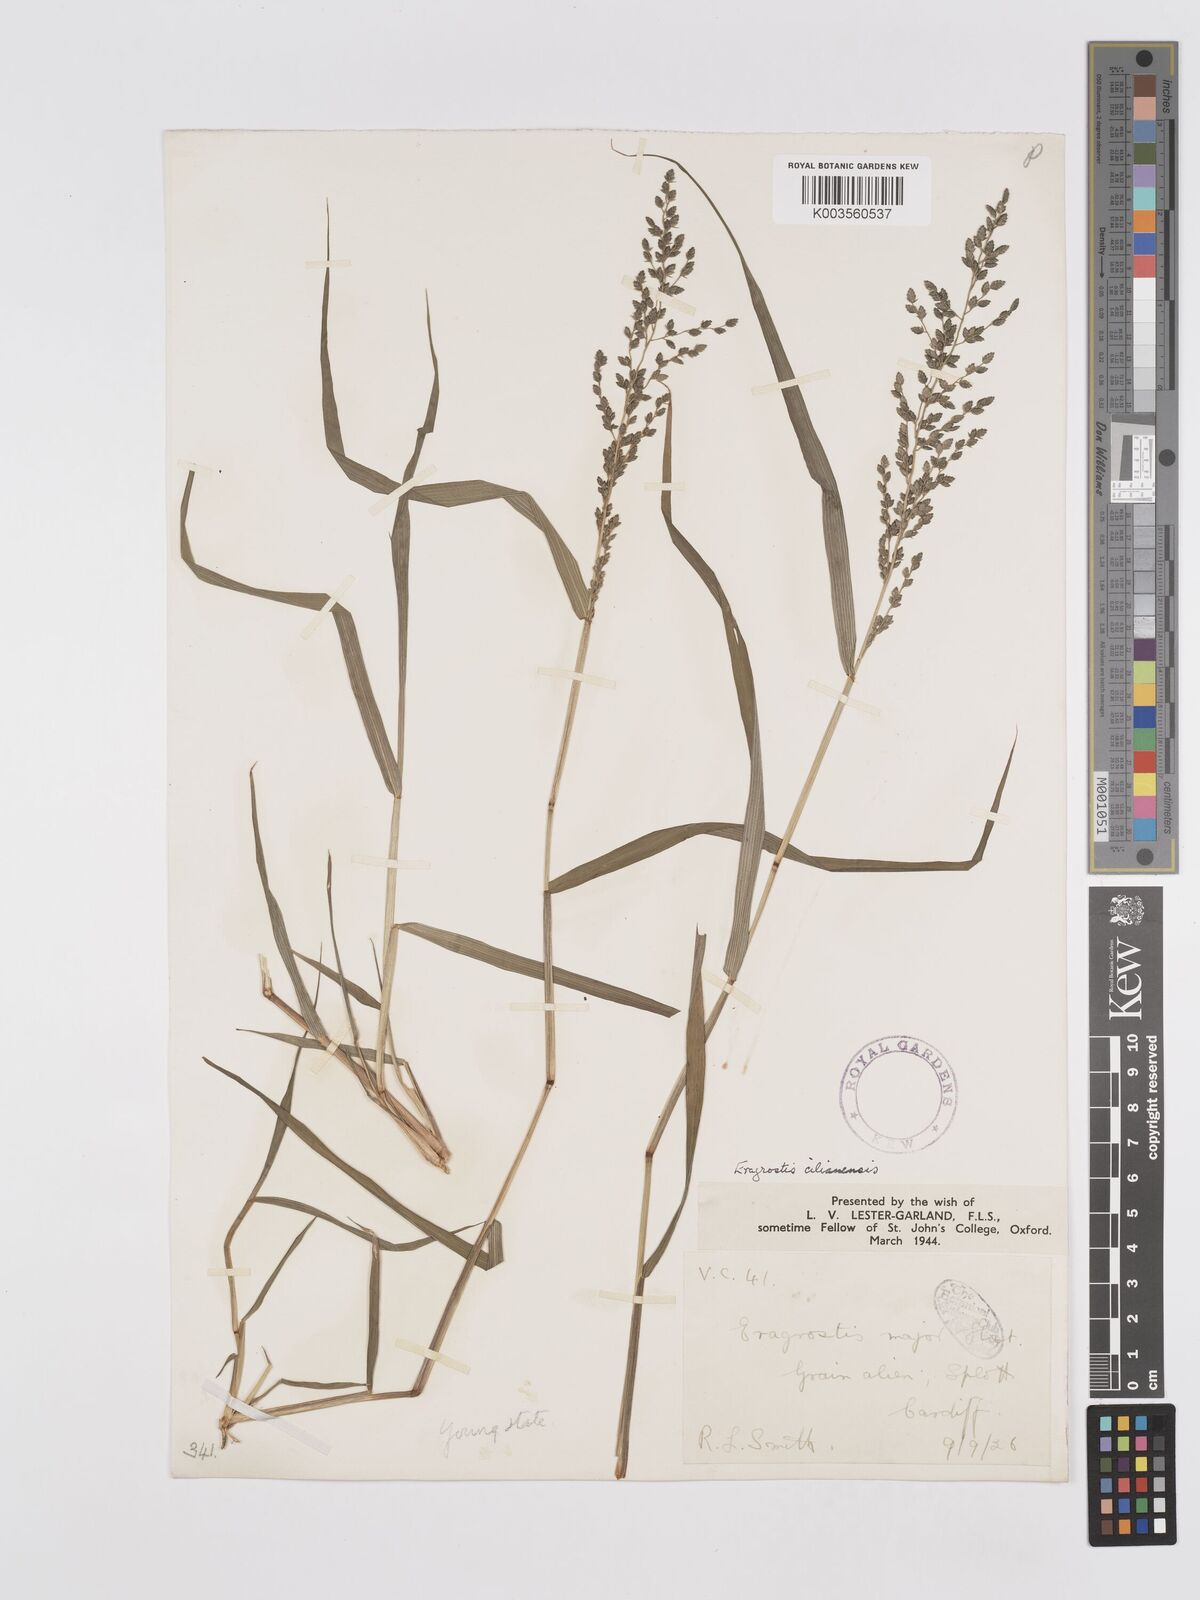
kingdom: Plantae
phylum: Tracheophyta
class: Liliopsida
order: Poales
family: Poaceae
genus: Eragrostis
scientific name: Eragrostis cilianensis
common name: Stinkgrass
